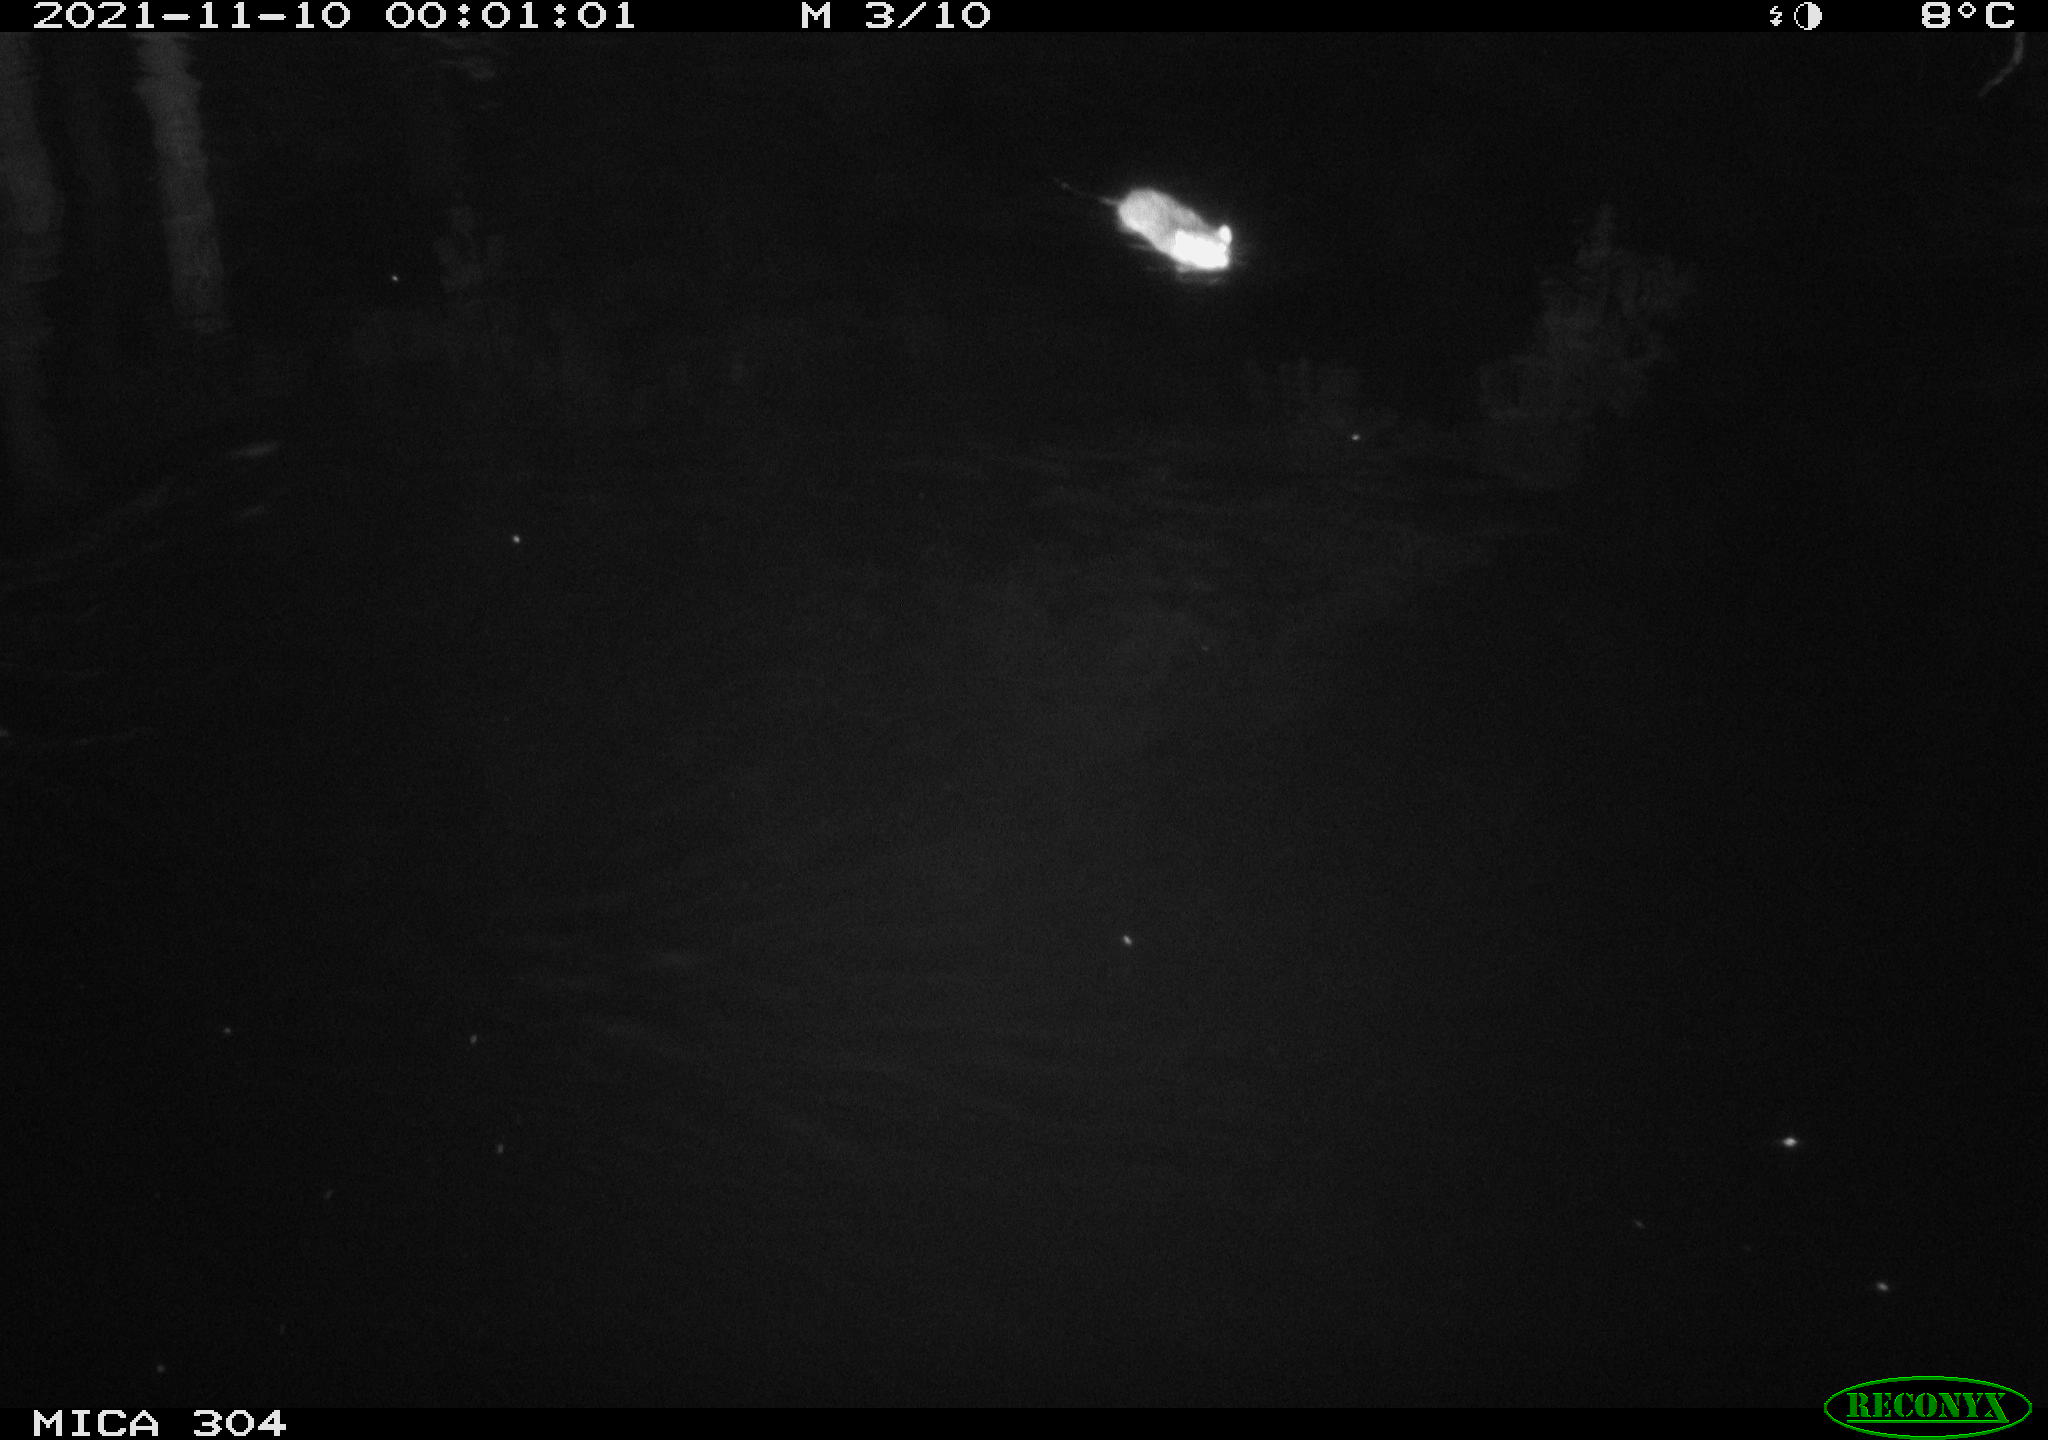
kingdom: Animalia
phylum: Chordata
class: Mammalia
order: Rodentia
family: Muridae
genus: Rattus
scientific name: Rattus norvegicus
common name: Brown rat
